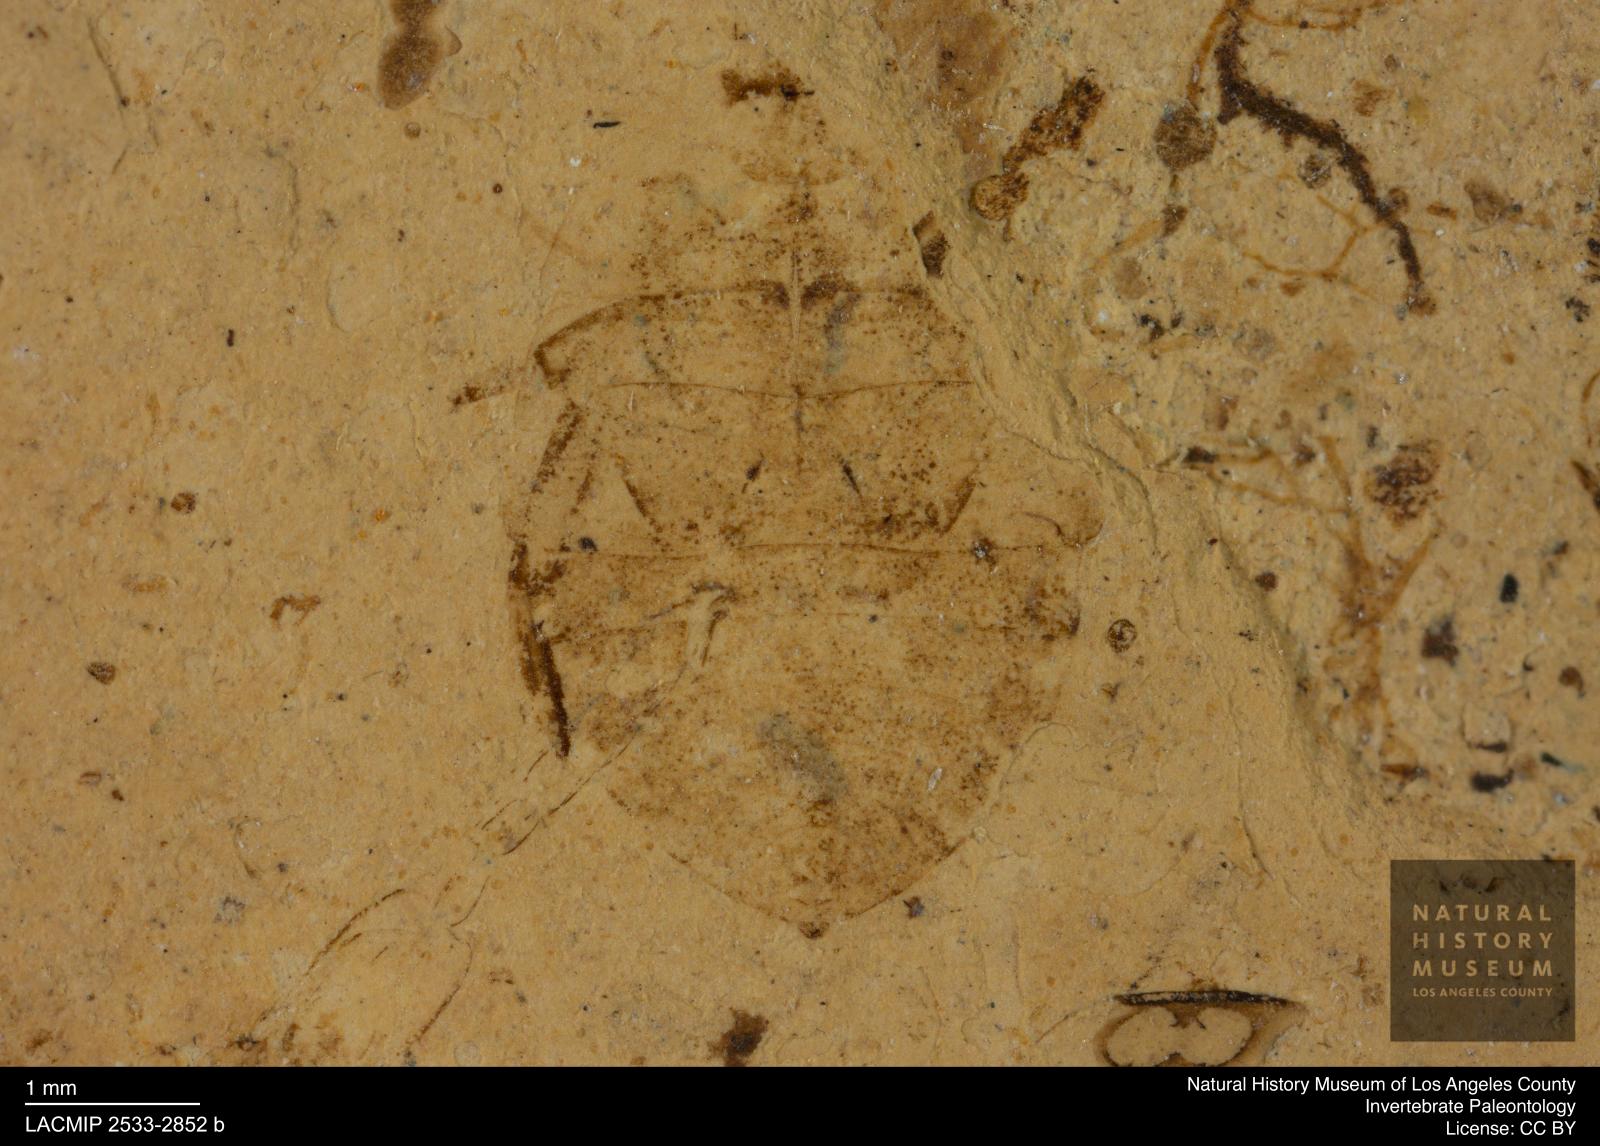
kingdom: Animalia
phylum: Arthropoda
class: Insecta
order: Hemiptera
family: Naucoridae
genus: Naucoris
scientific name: Naucoris rottensis
